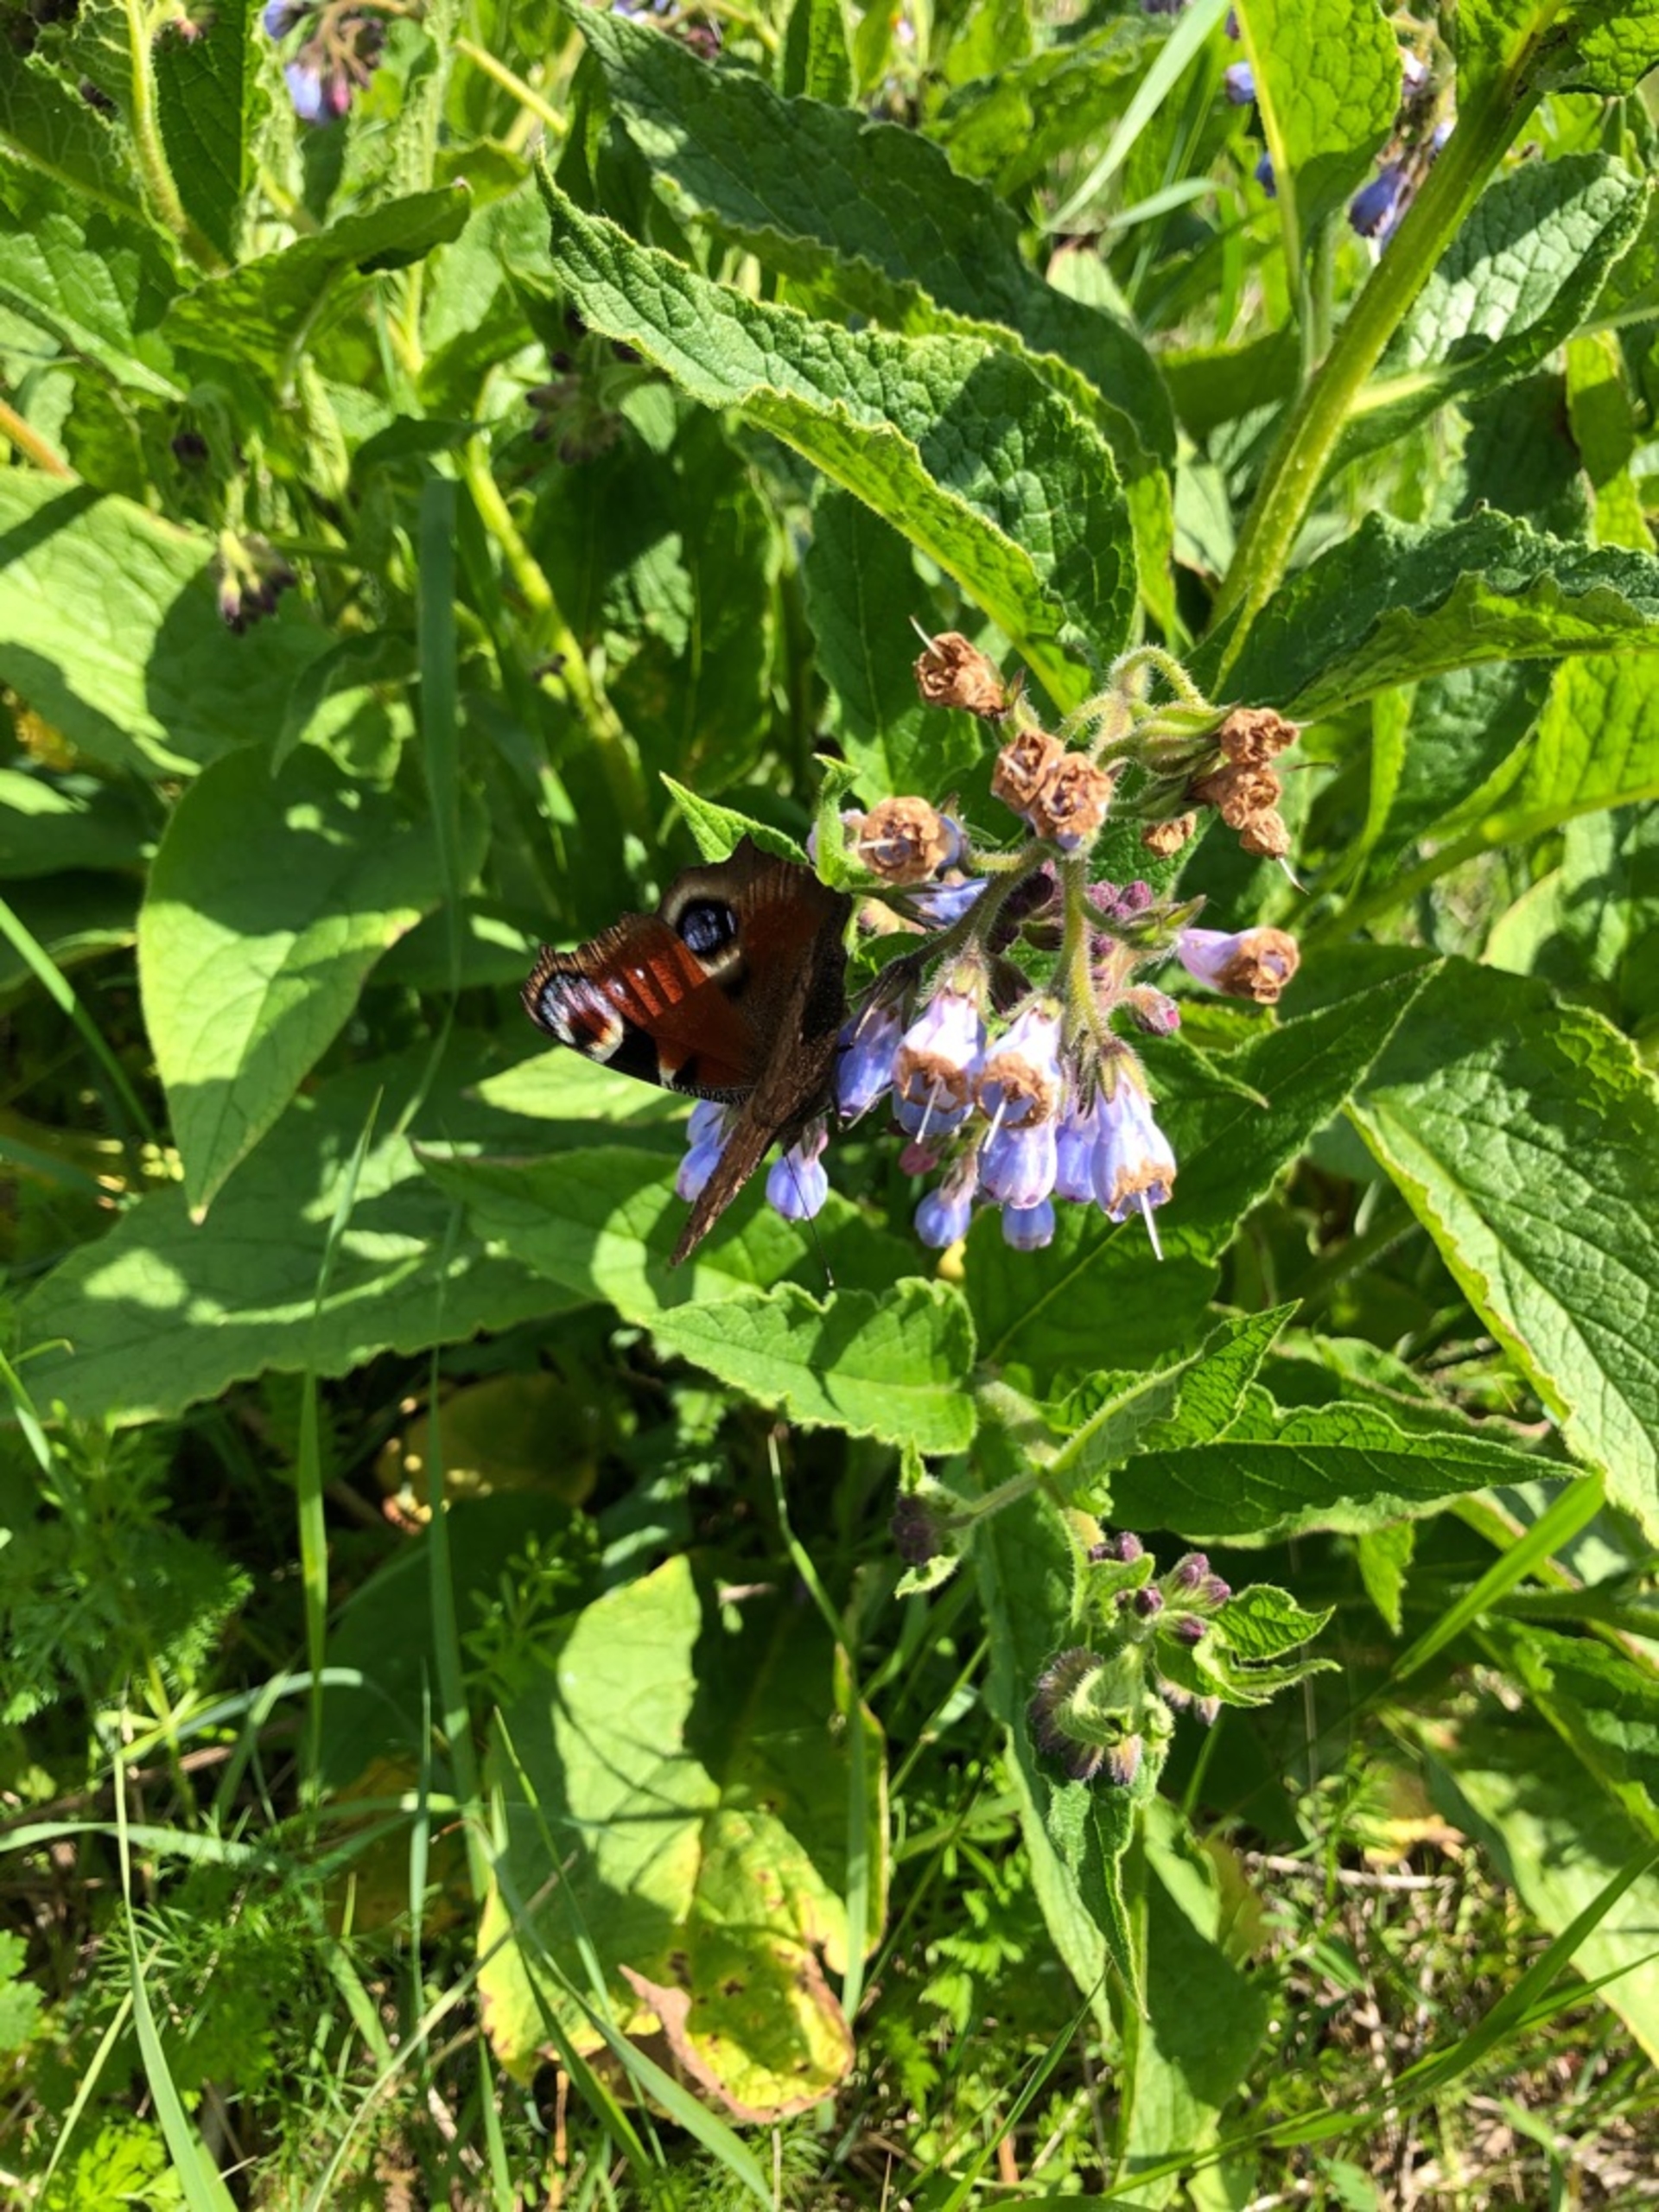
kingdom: Animalia
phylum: Arthropoda
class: Insecta
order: Lepidoptera
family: Nymphalidae
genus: Aglais
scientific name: Aglais io
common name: Dagpåfugleøje
